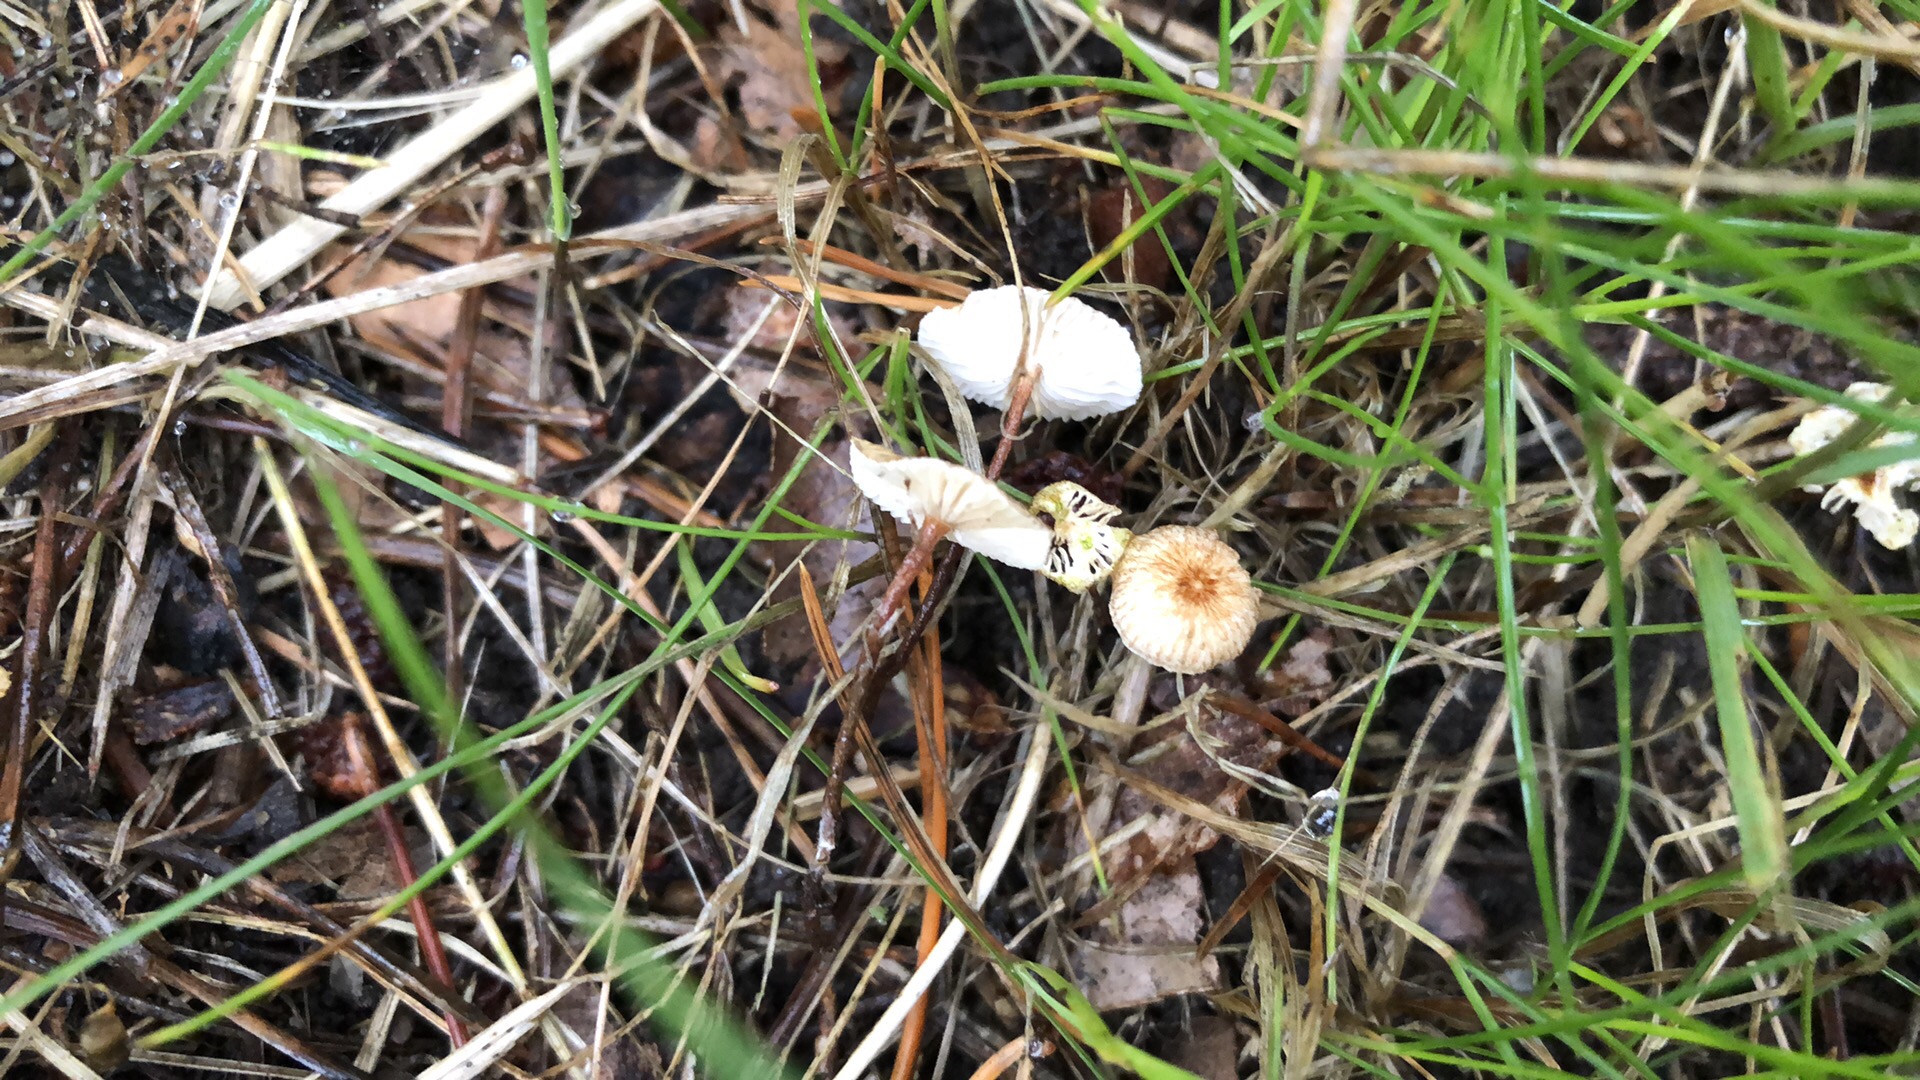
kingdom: Fungi
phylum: Basidiomycota
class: Agaricomycetes
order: Agaricales
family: Marasmiaceae
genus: Crinipellis
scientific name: Crinipellis scabella
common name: børstefod
